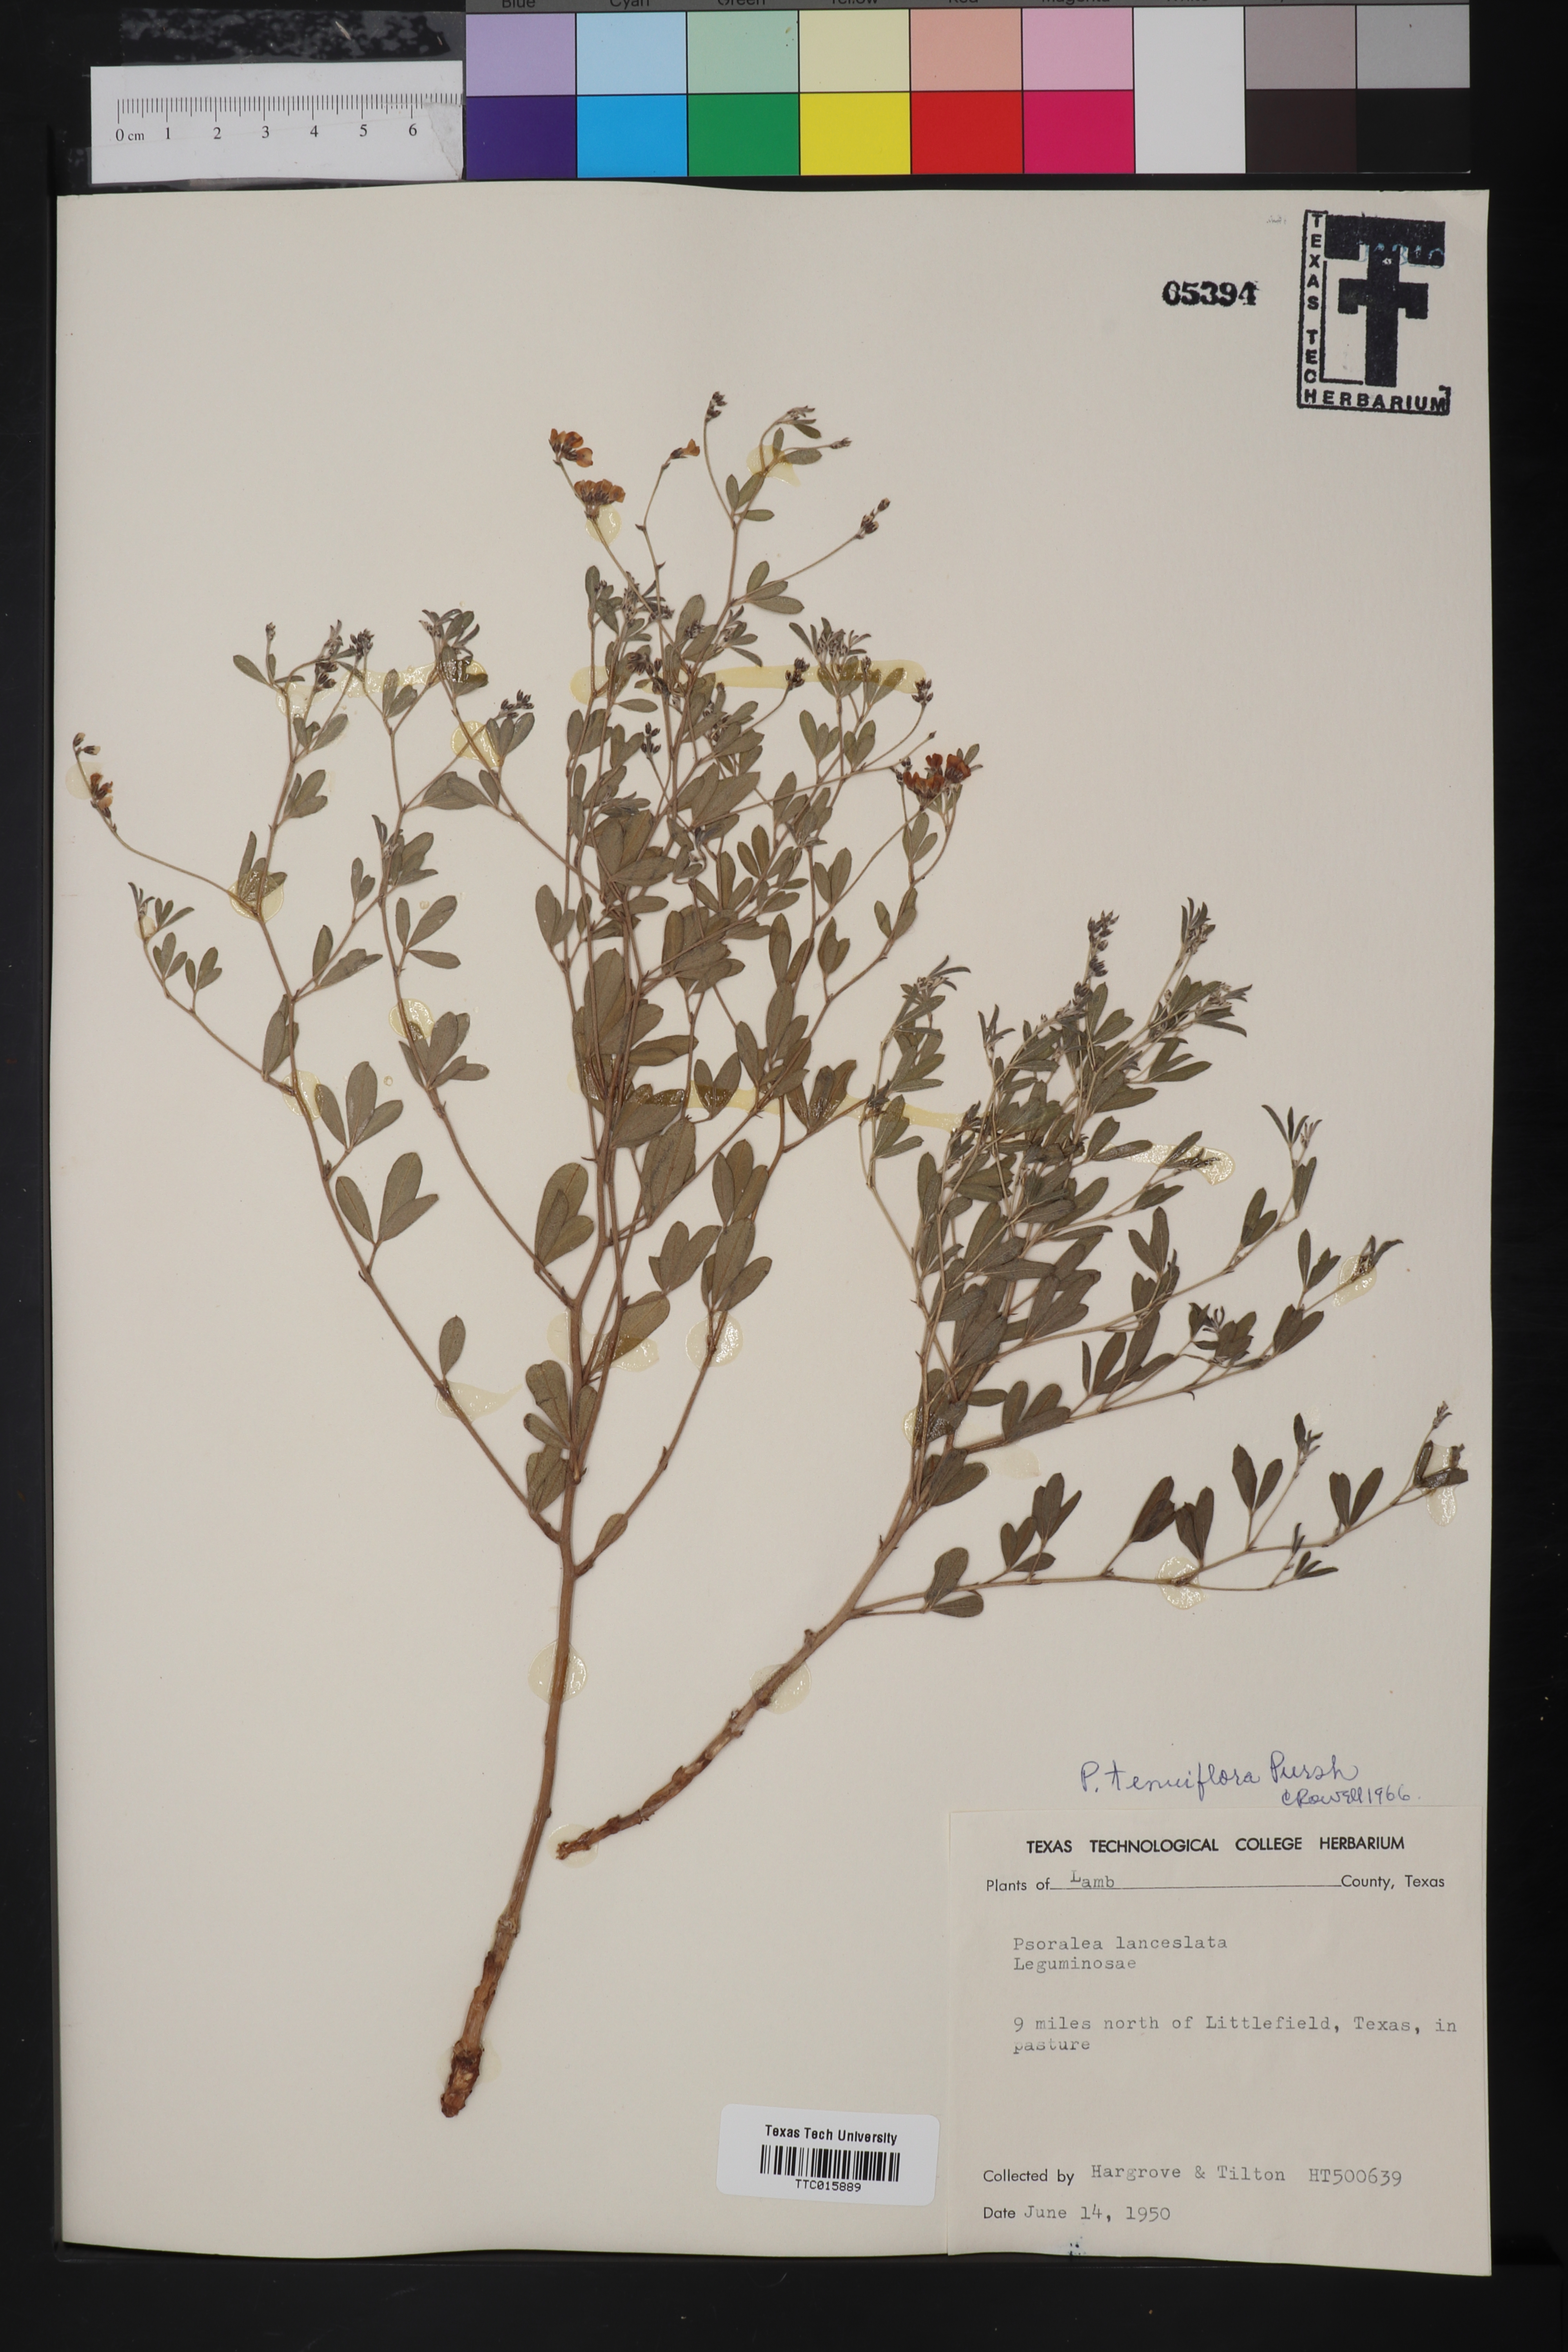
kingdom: Plantae
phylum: Tracheophyta
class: Magnoliopsida
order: Fabales
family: Fabaceae
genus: Pediomelum
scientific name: Pediomelum tenuiflorum
